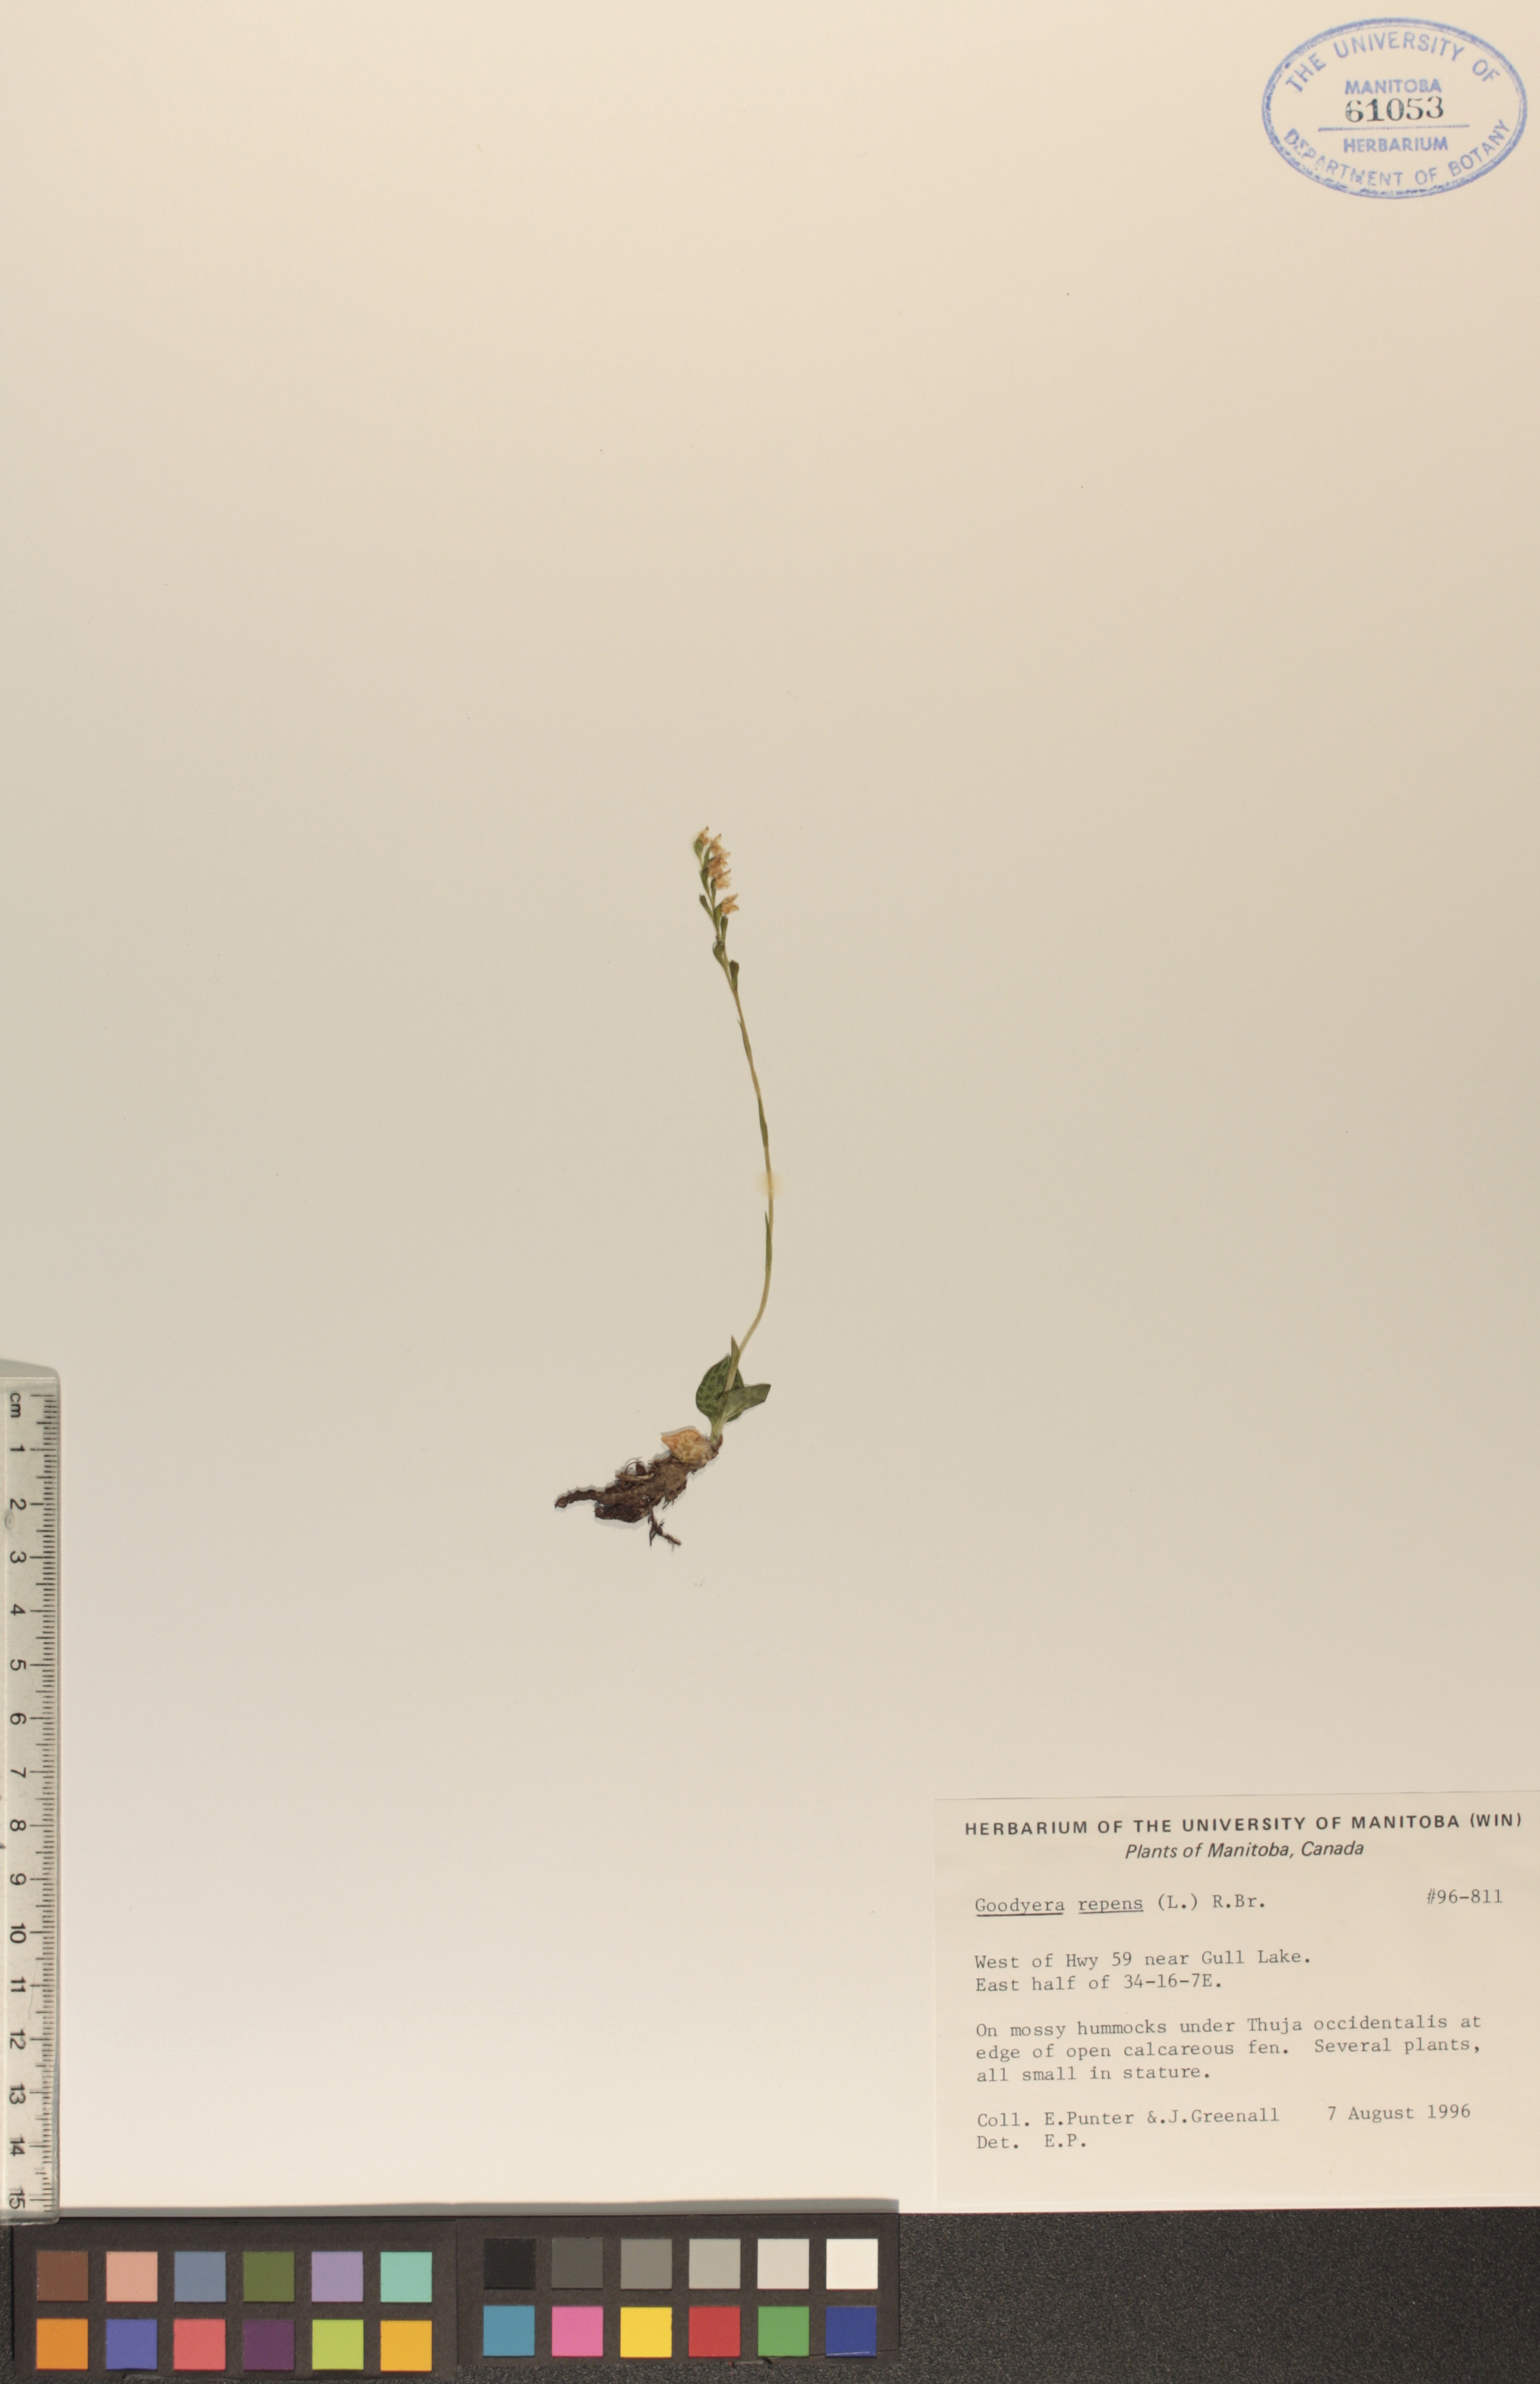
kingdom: Plantae
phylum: Tracheophyta
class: Liliopsida
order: Asparagales
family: Orchidaceae
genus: Goodyera
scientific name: Goodyera repens
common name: Creeping lady's-tresses
